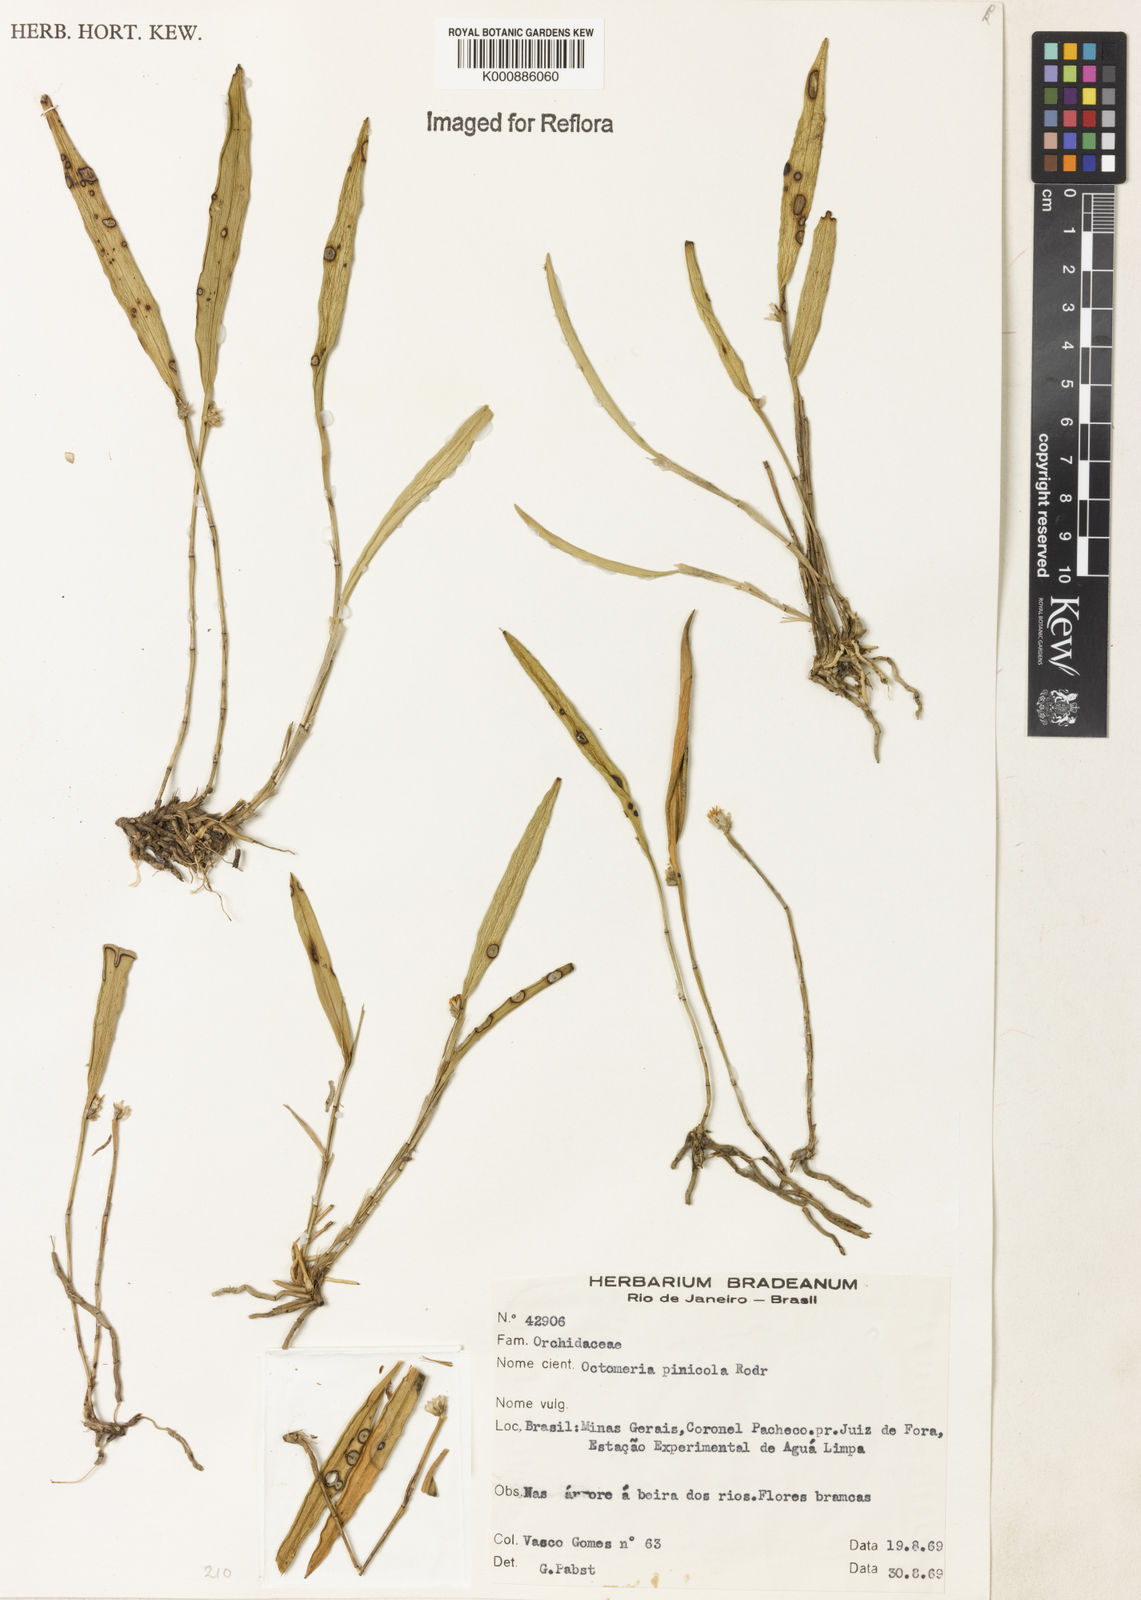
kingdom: Plantae
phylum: Tracheophyta
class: Liliopsida
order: Asparagales
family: Orchidaceae
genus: Octomeria
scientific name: Octomeria pinicola
